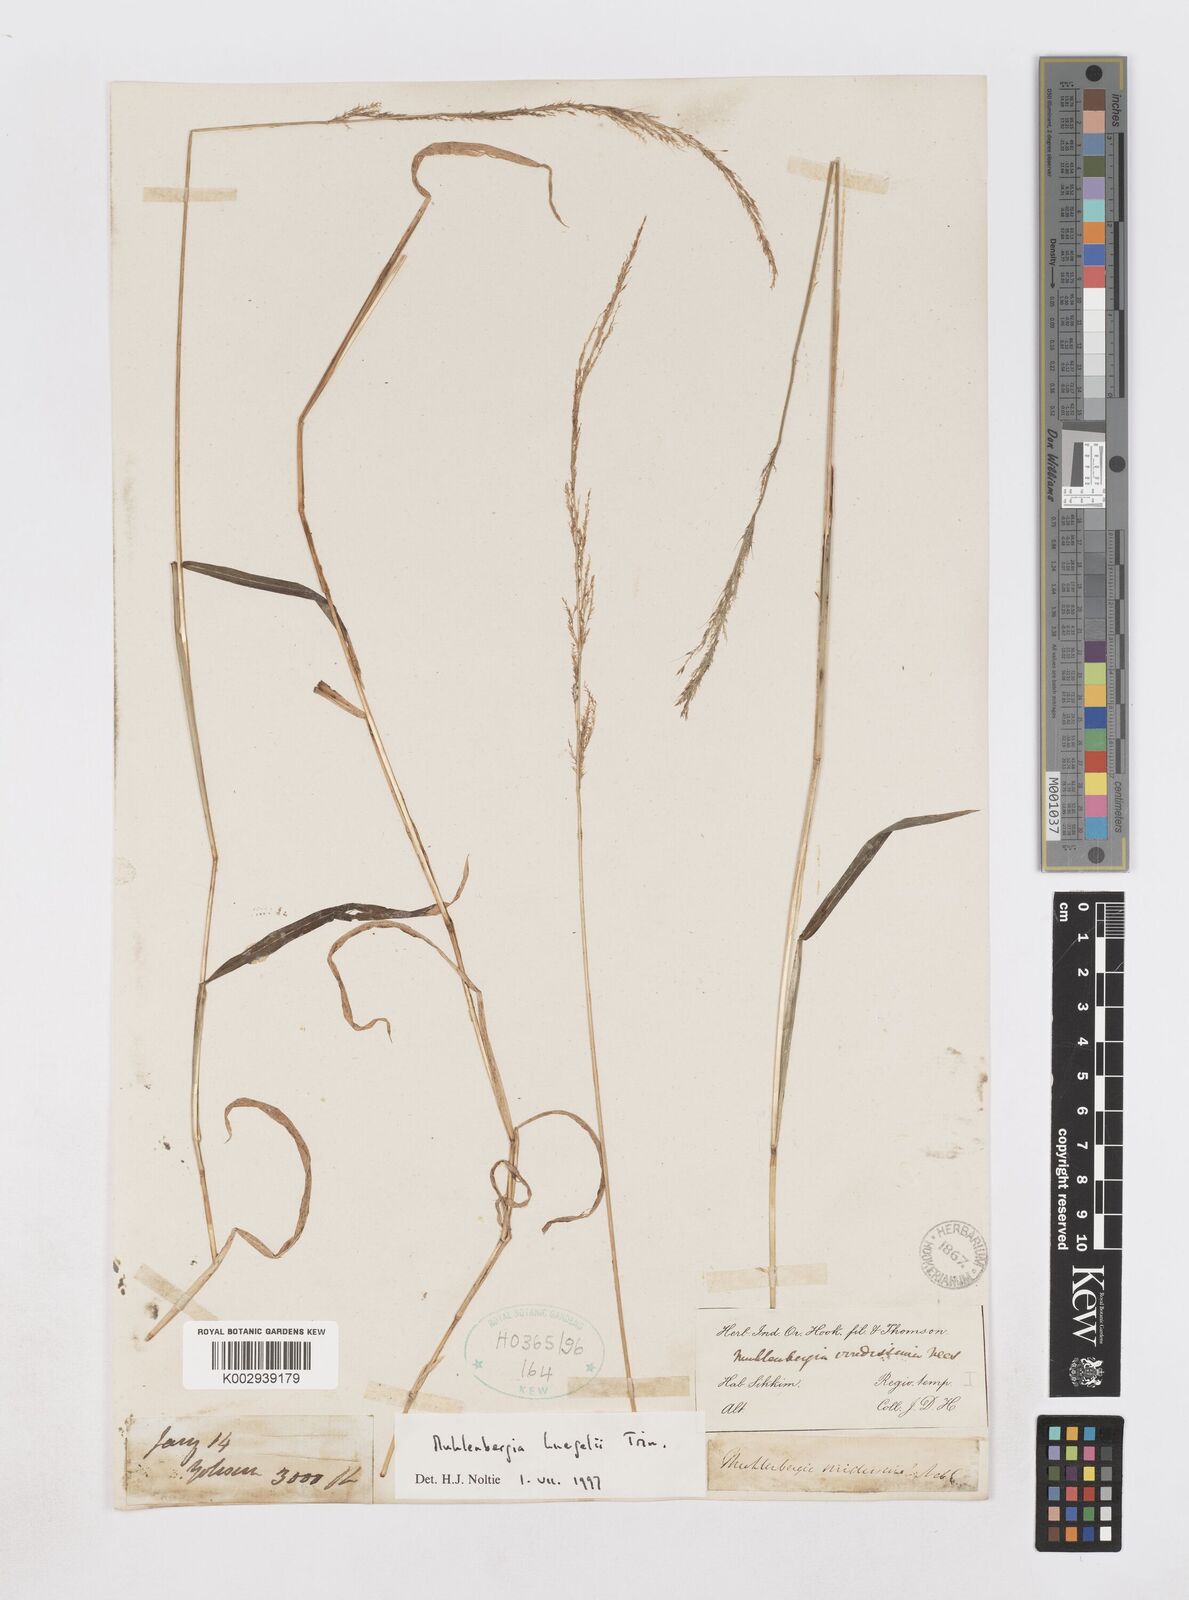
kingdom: Plantae
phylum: Tracheophyta
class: Liliopsida
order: Poales
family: Poaceae
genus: Muhlenbergia
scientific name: Muhlenbergia huegelii
